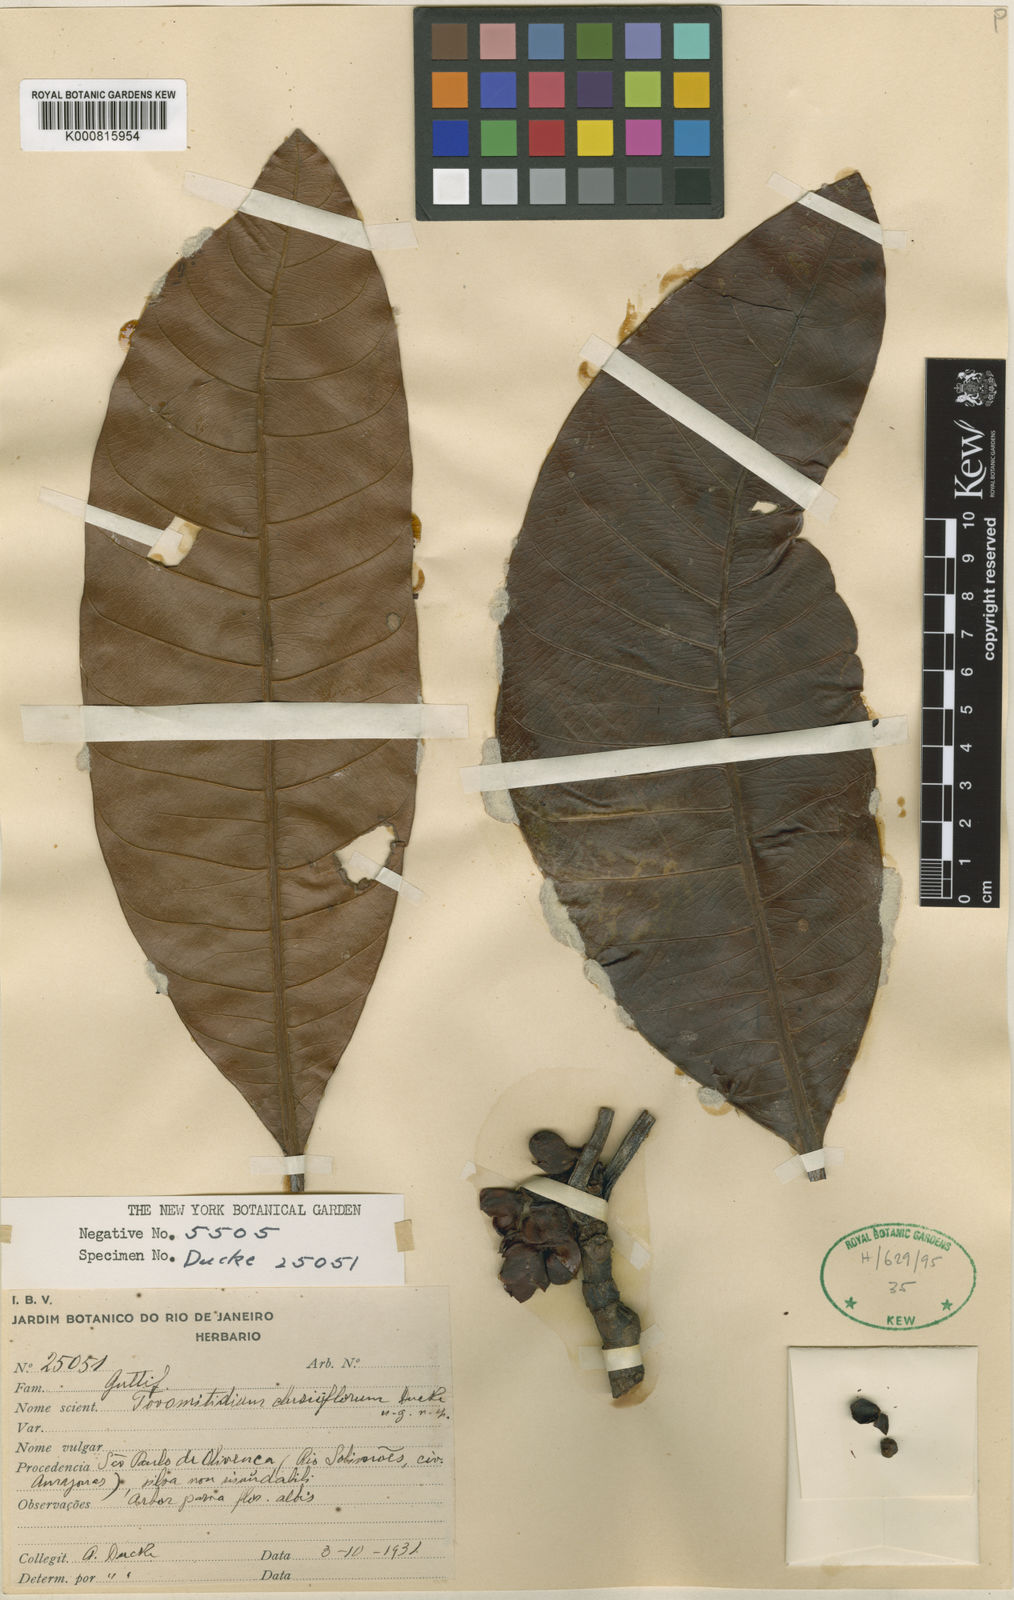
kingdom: Plantae
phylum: Tracheophyta
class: Magnoliopsida
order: Malpighiales
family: Clusiaceae
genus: Tovomita
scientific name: Tovomita longifolia
